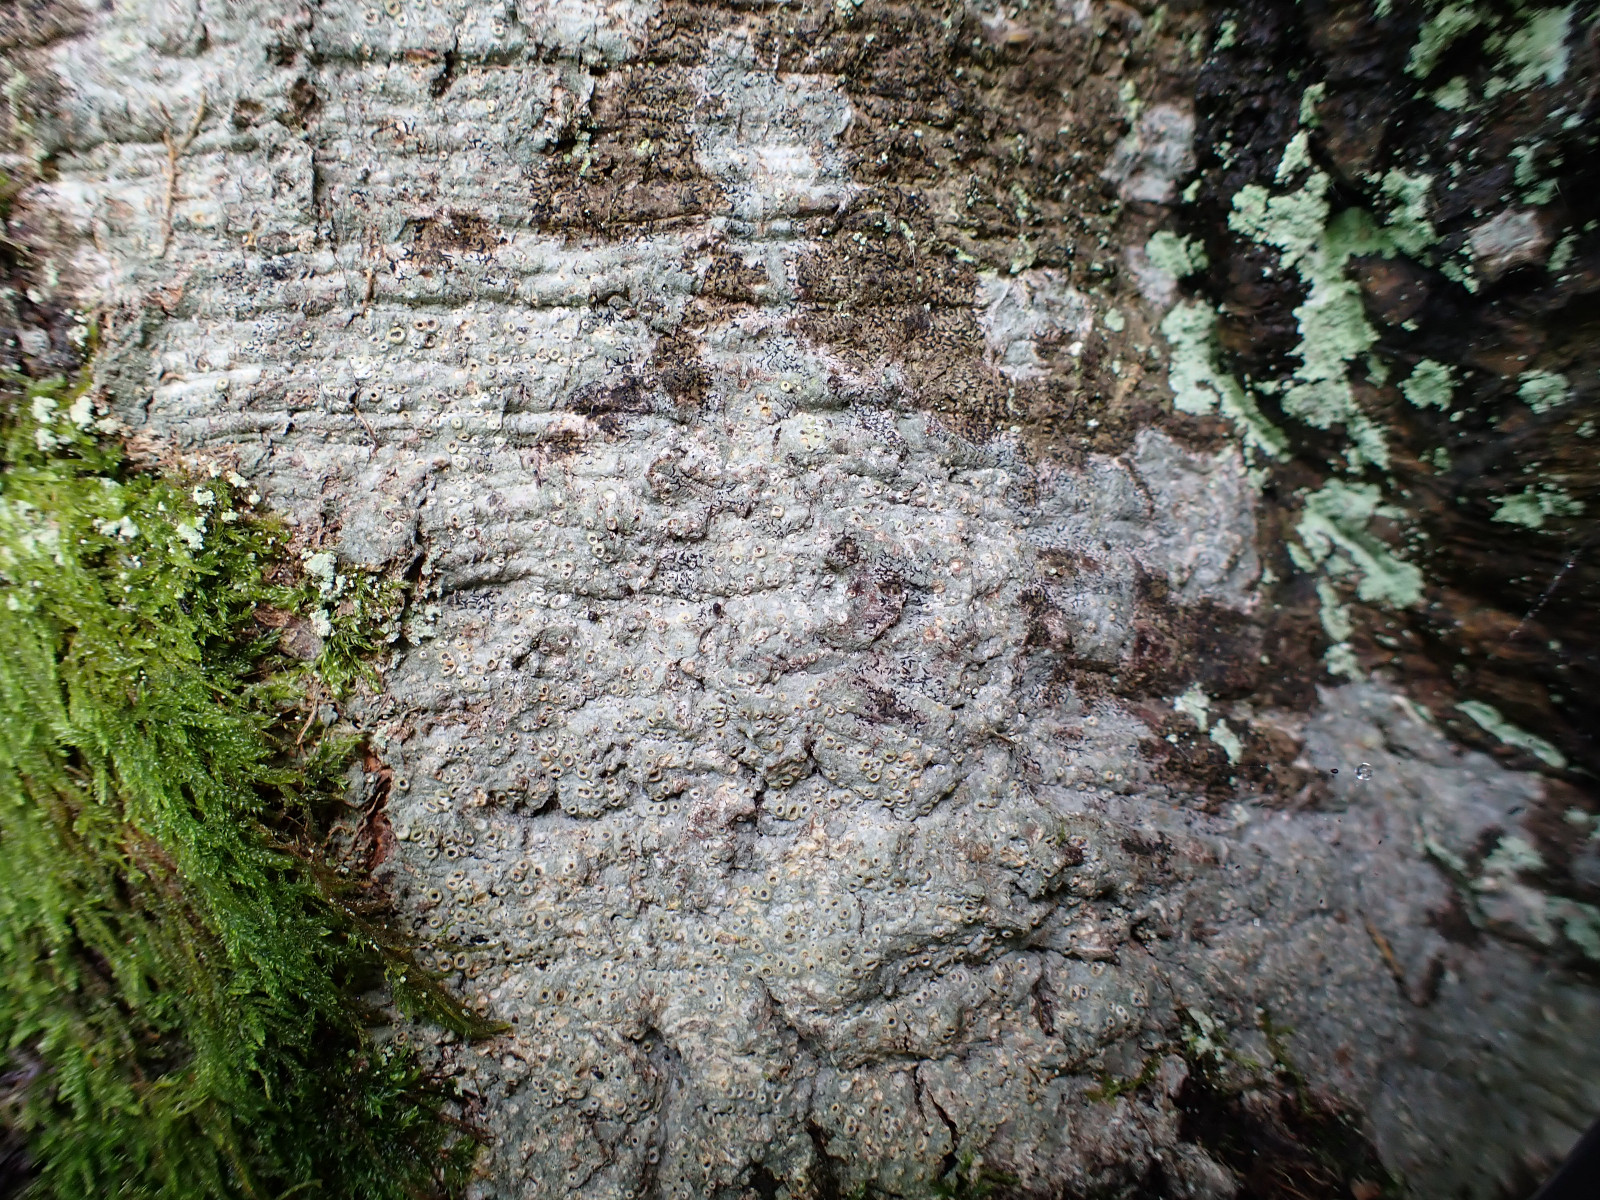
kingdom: Fungi
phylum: Ascomycota
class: Lecanoromycetes
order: Ostropales
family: Graphidaceae
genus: Thelotrema
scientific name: Thelotrema lepadinum
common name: almindelig slørkantlav
